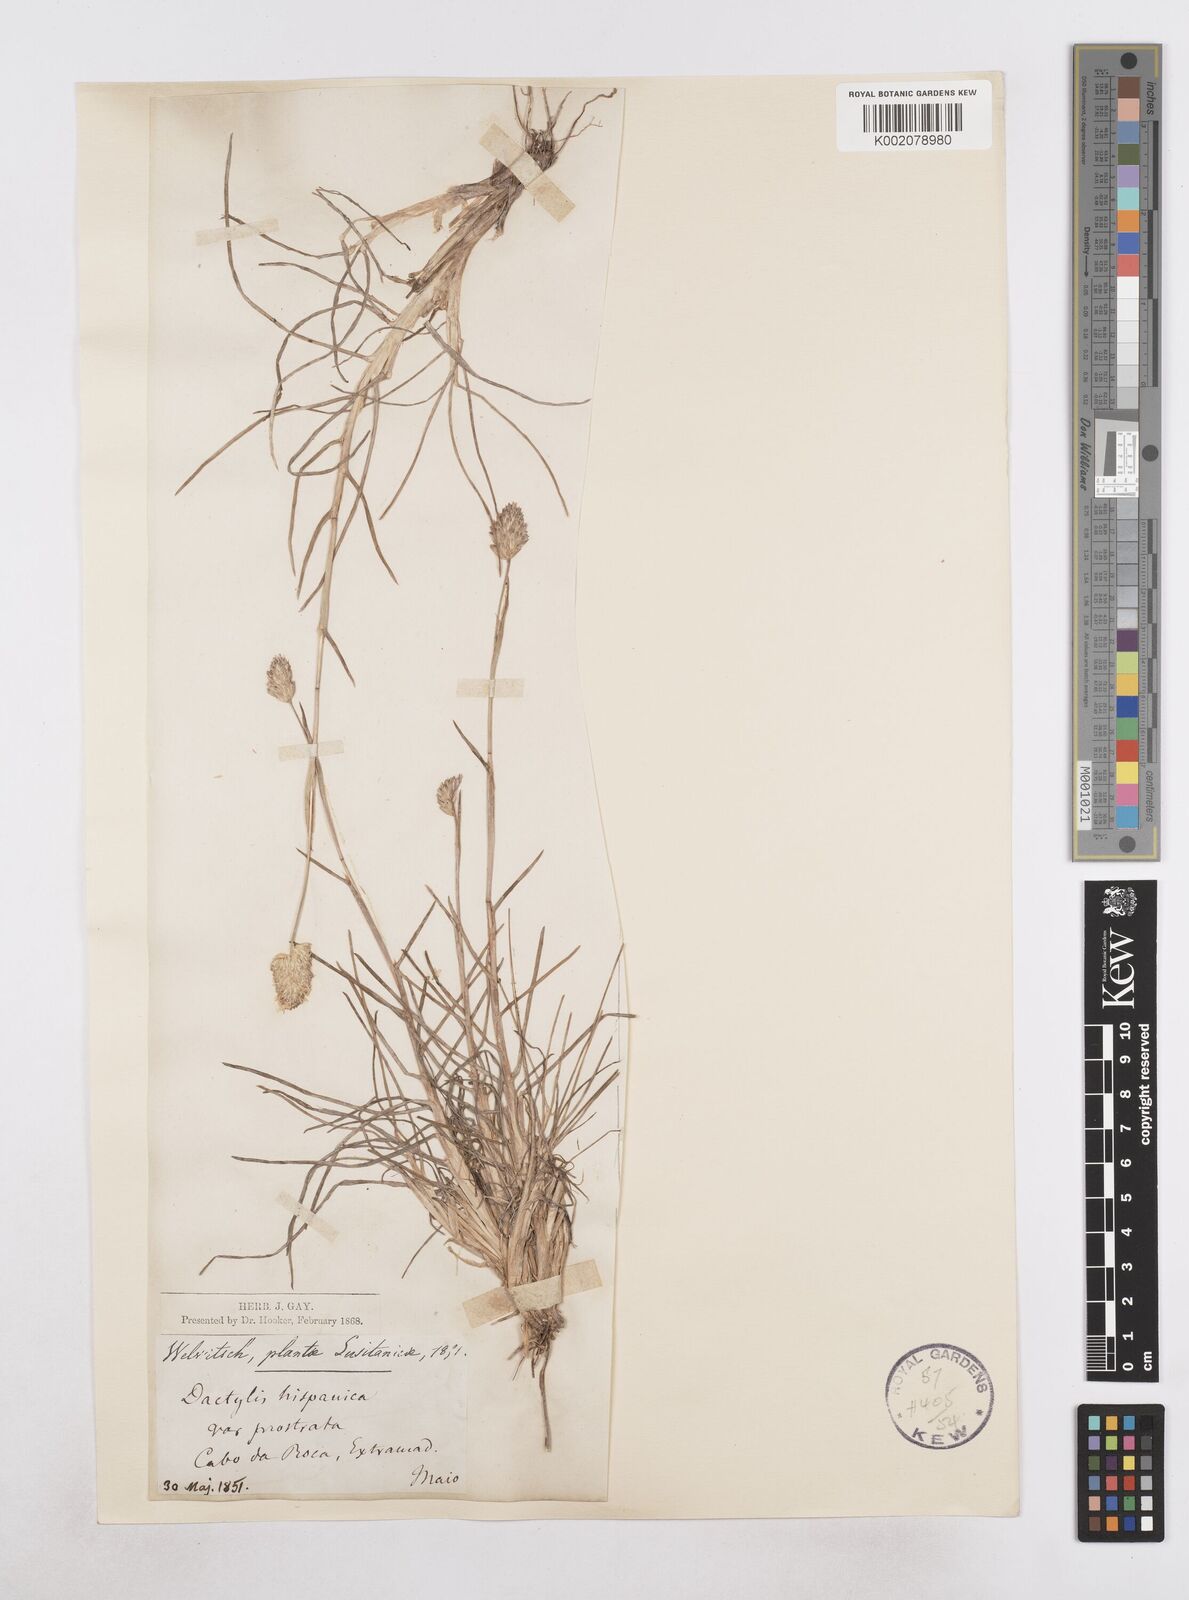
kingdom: Plantae
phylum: Tracheophyta
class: Liliopsida
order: Poales
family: Poaceae
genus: Dactylis
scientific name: Dactylis glomerata
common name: Orchardgrass
